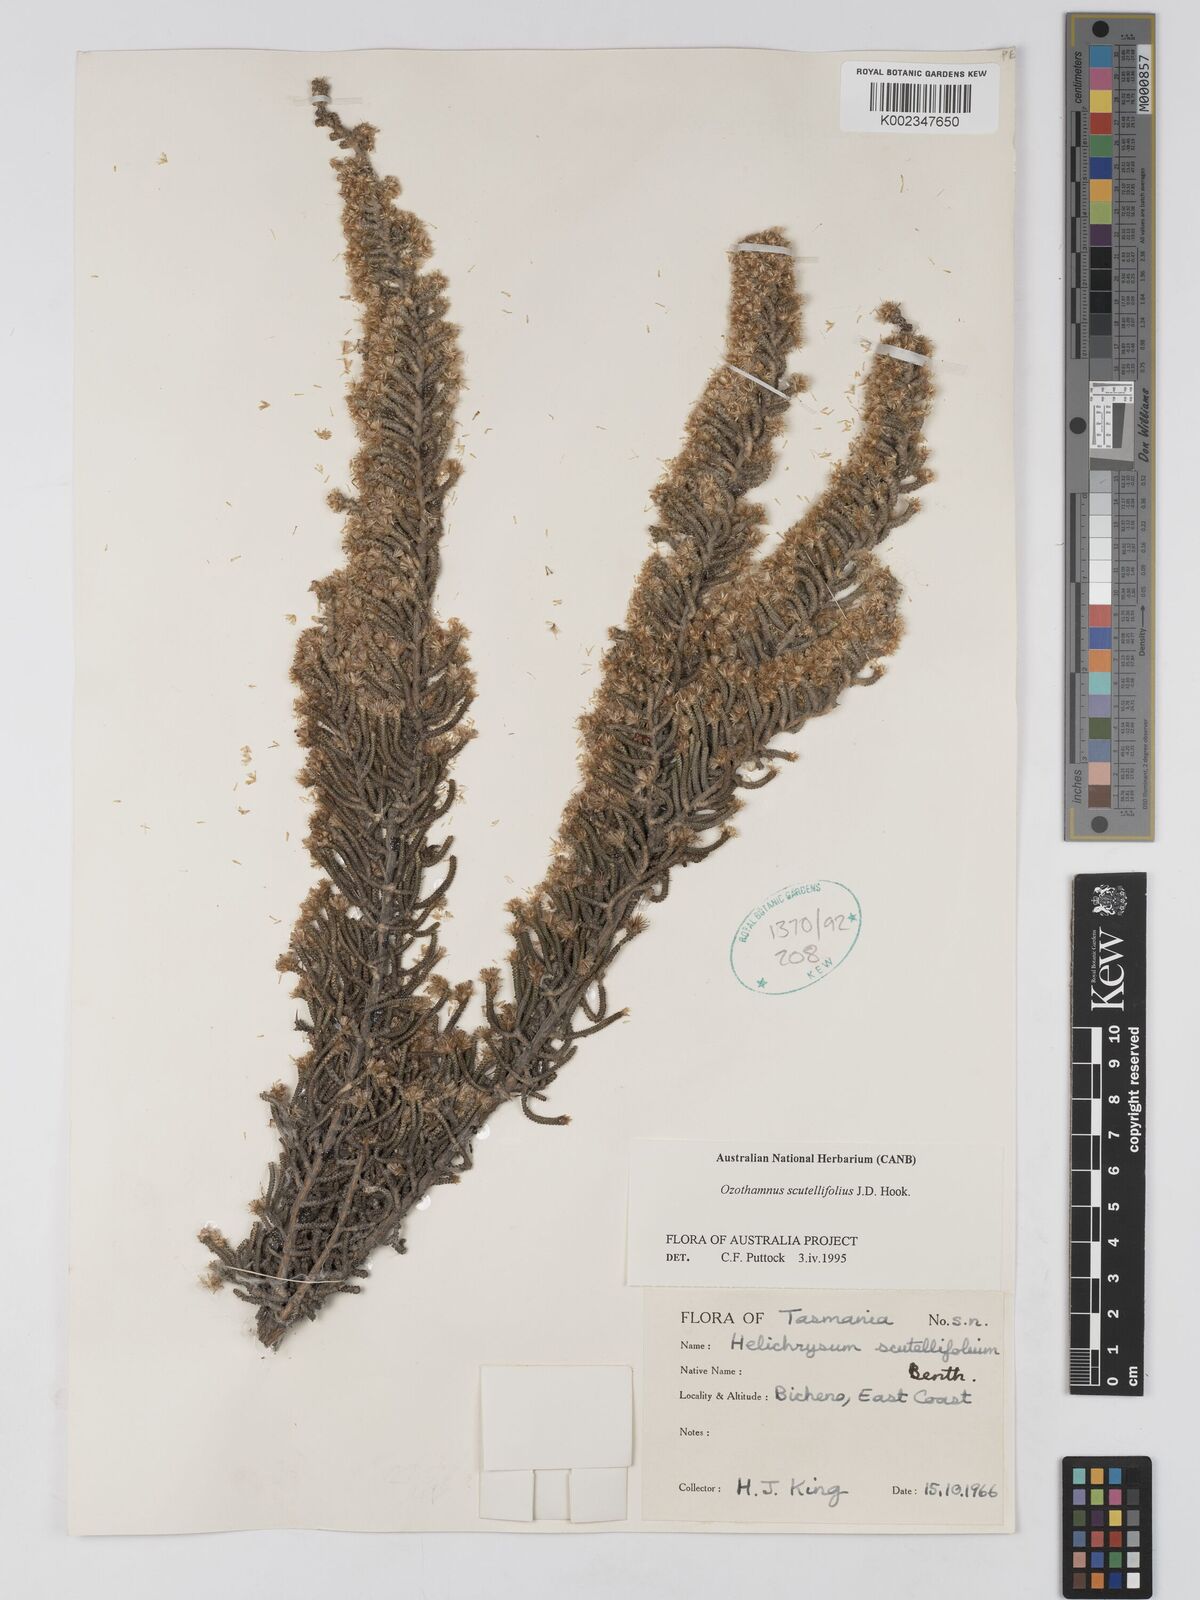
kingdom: Plantae
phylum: Tracheophyta
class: Magnoliopsida
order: Asterales
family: Asteraceae
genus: Ozothamnus
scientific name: Ozothamnus scutellifolius
